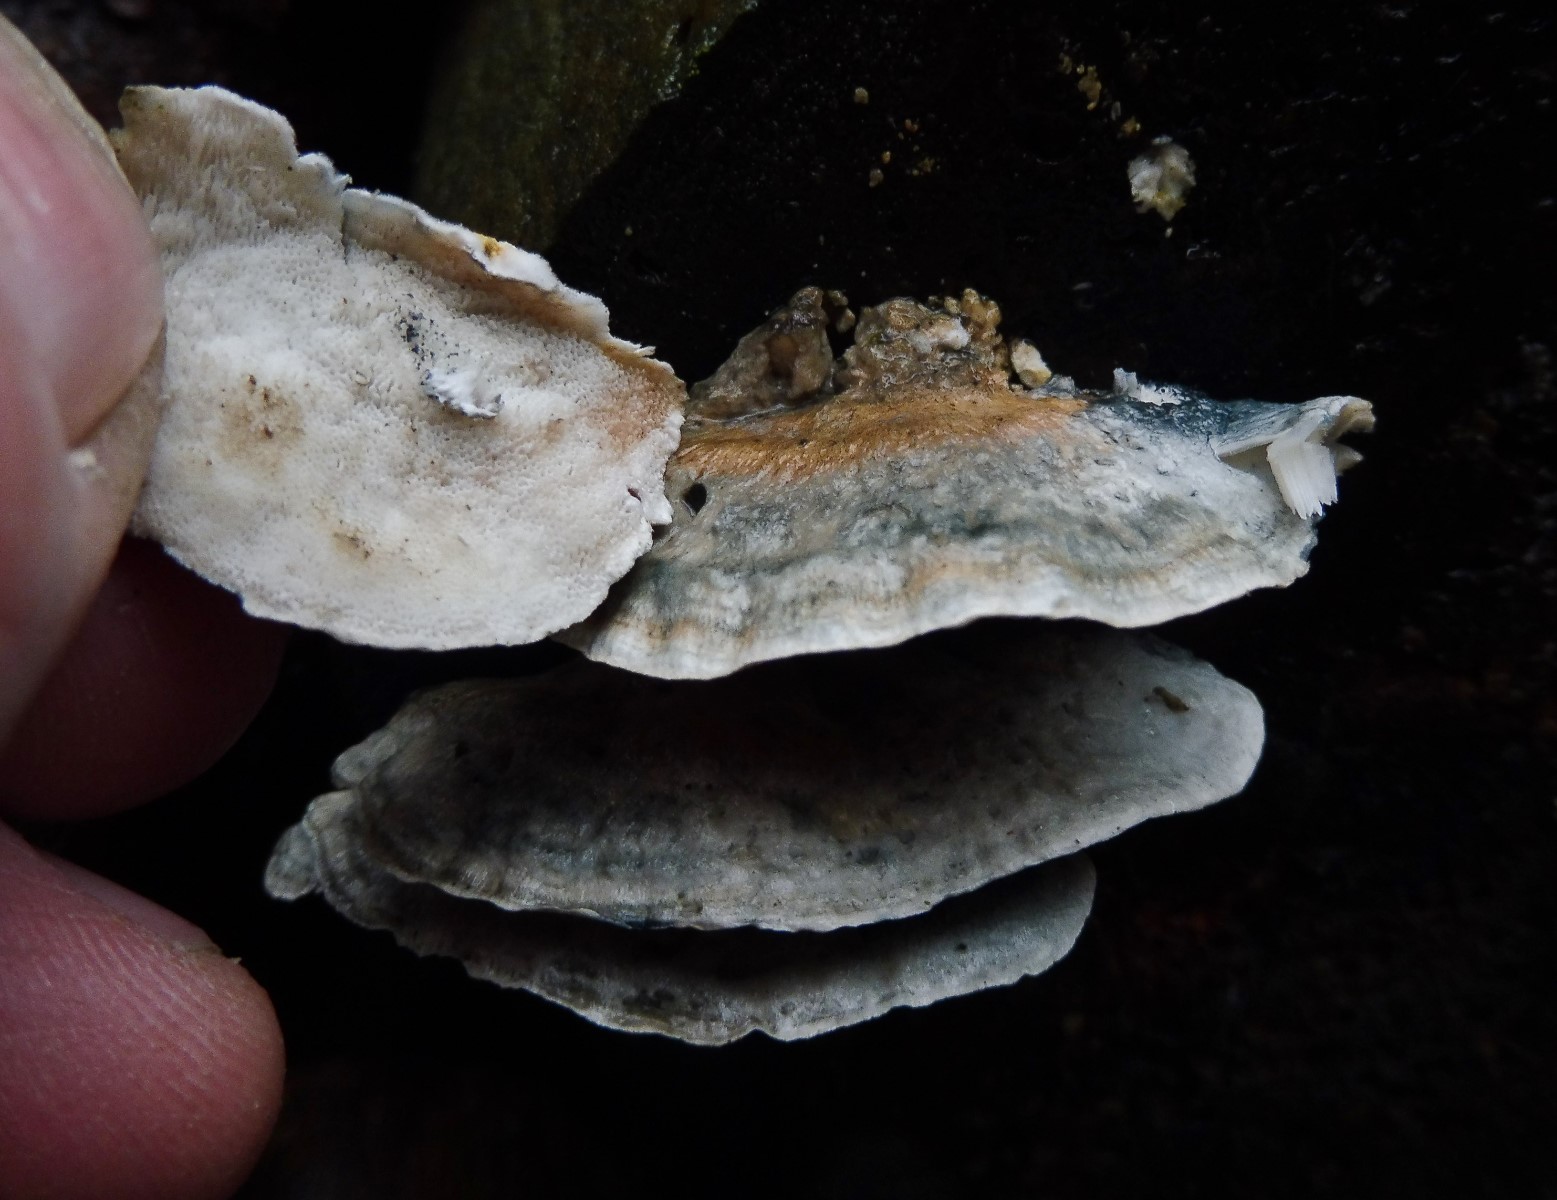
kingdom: Fungi
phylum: Basidiomycota
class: Agaricomycetes
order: Polyporales
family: Polyporaceae
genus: Cyanosporus
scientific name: Cyanosporus alni
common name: blegblå kødporesvamp
